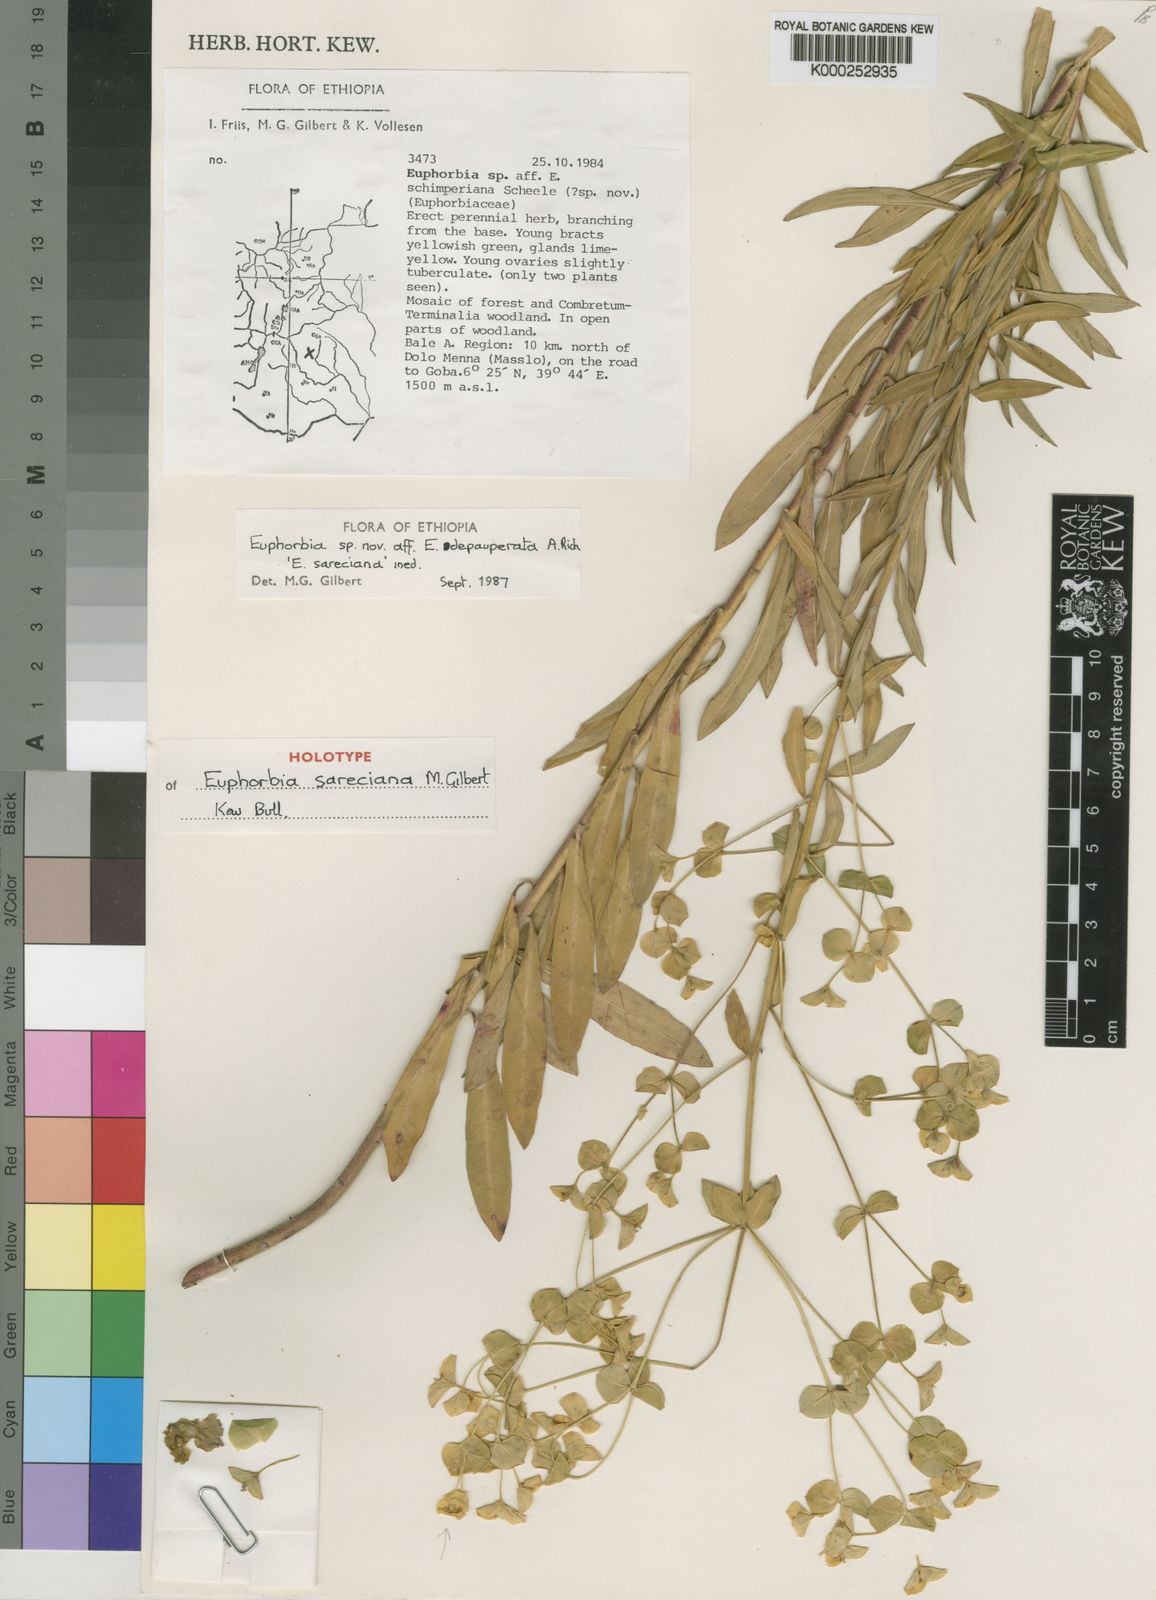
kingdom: Plantae
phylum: Tracheophyta
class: Magnoliopsida
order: Malpighiales
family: Euphorbiaceae
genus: Euphorbia
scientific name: Euphorbia sareciana
